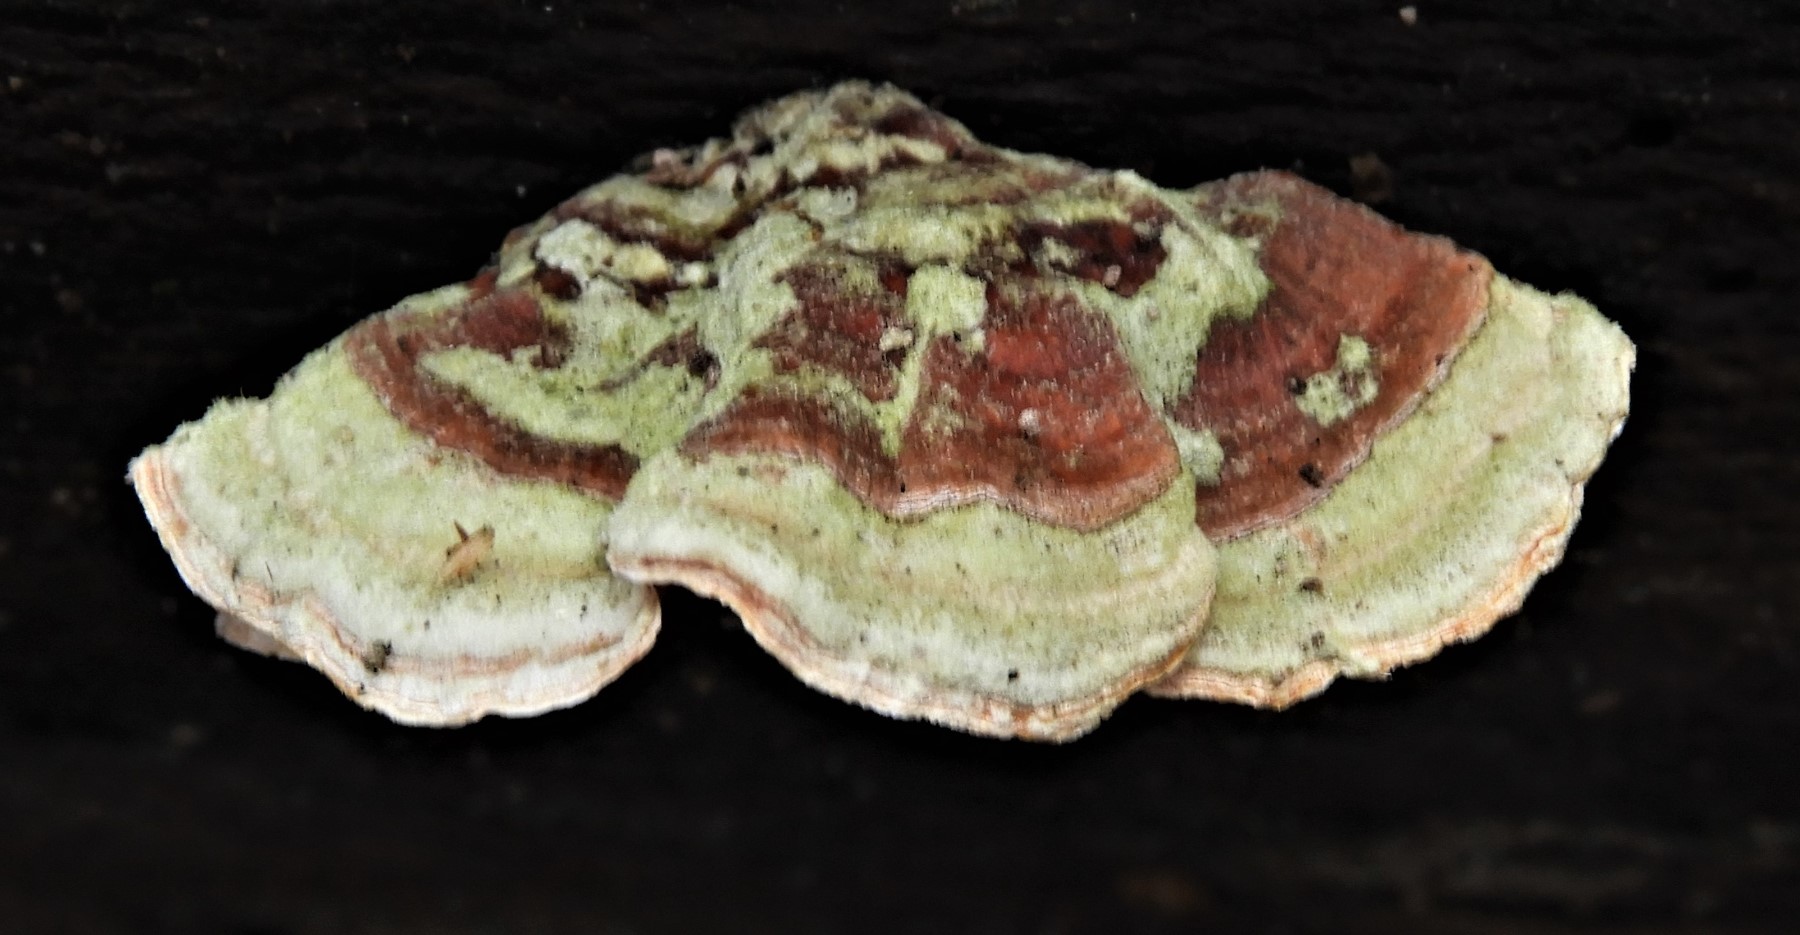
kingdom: Fungi
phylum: Basidiomycota
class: Agaricomycetes
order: Russulales
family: Stereaceae
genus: Stereum
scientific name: Stereum subtomentosum
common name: smuk lædersvamp
